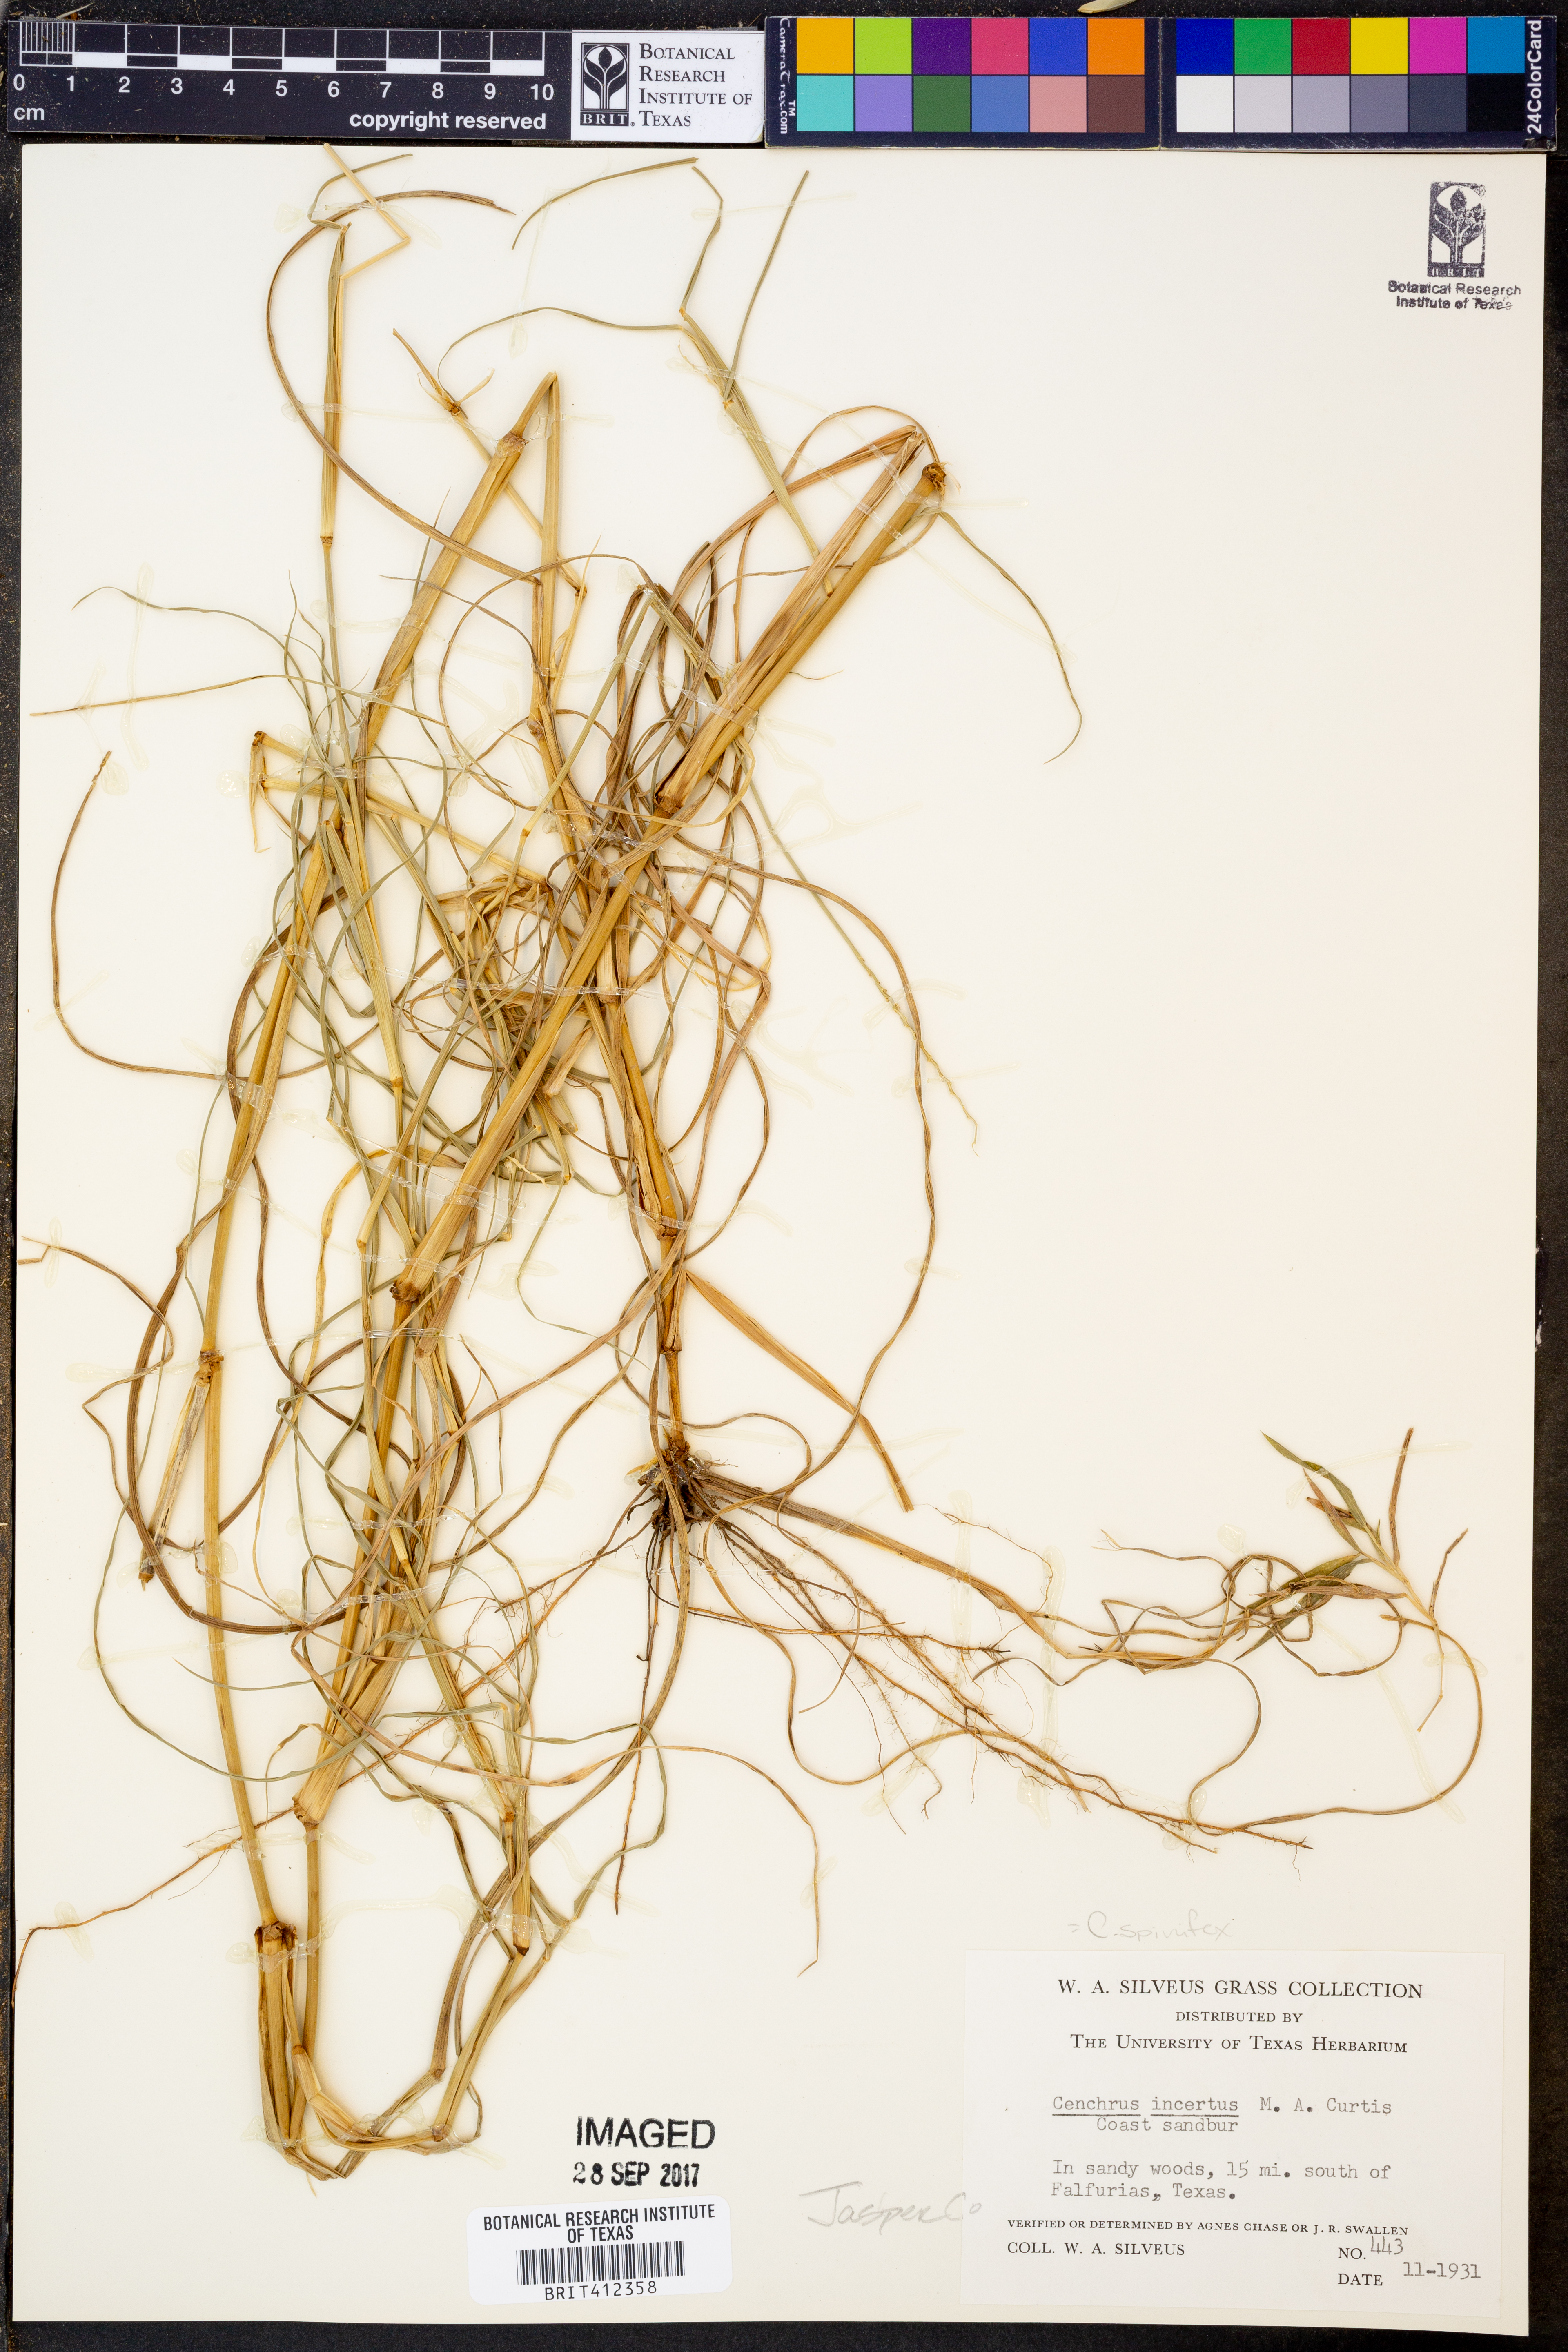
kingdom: Plantae
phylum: Tracheophyta
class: Liliopsida
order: Poales
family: Poaceae
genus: Cenchrus
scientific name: Cenchrus spinifex
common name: Coast sandbur
